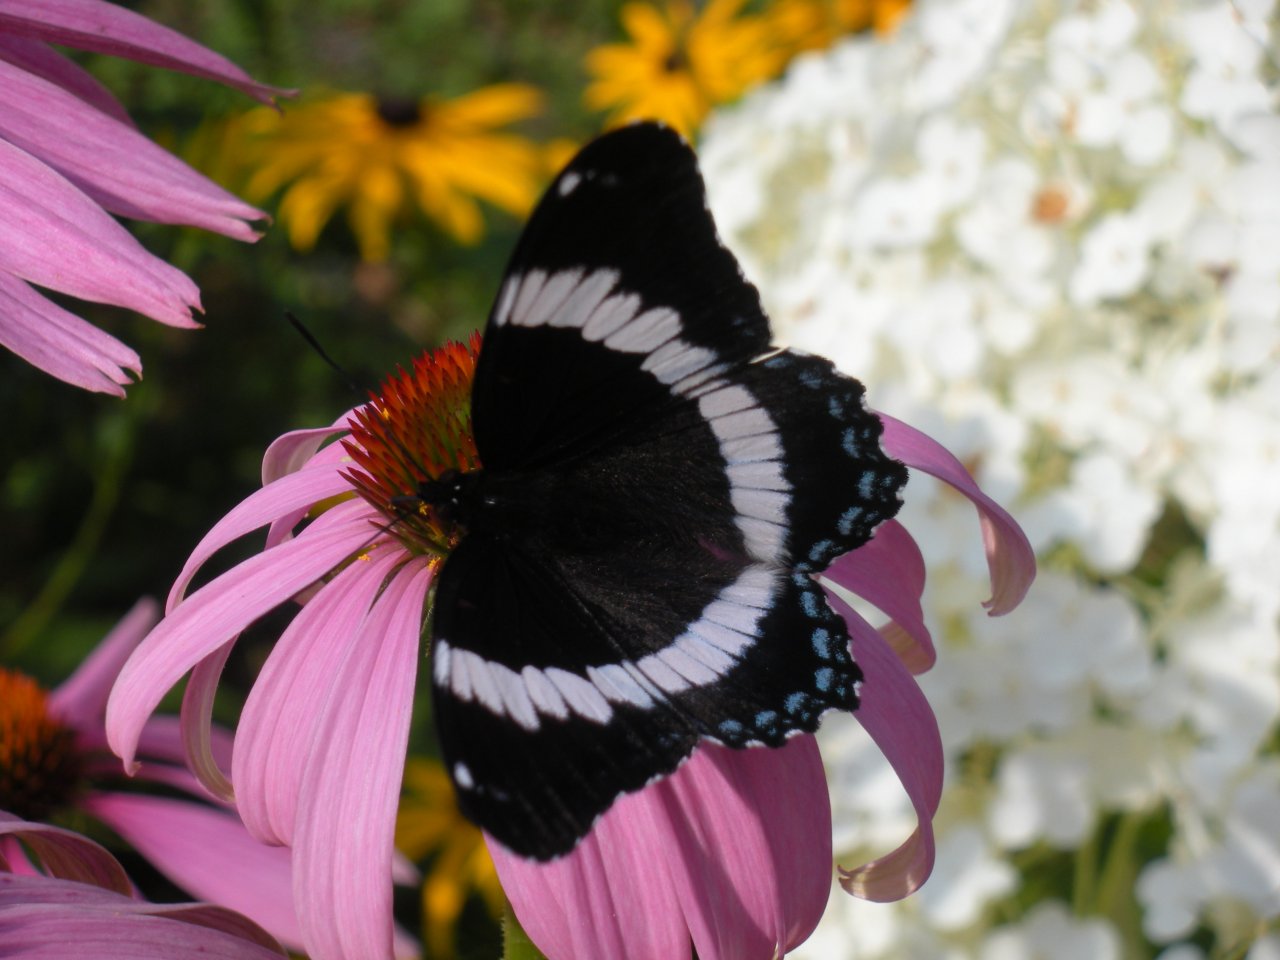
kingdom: Animalia
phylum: Arthropoda
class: Insecta
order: Lepidoptera
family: Nymphalidae
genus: Limenitis
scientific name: Limenitis arthemis
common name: Red-spotted Admiral
